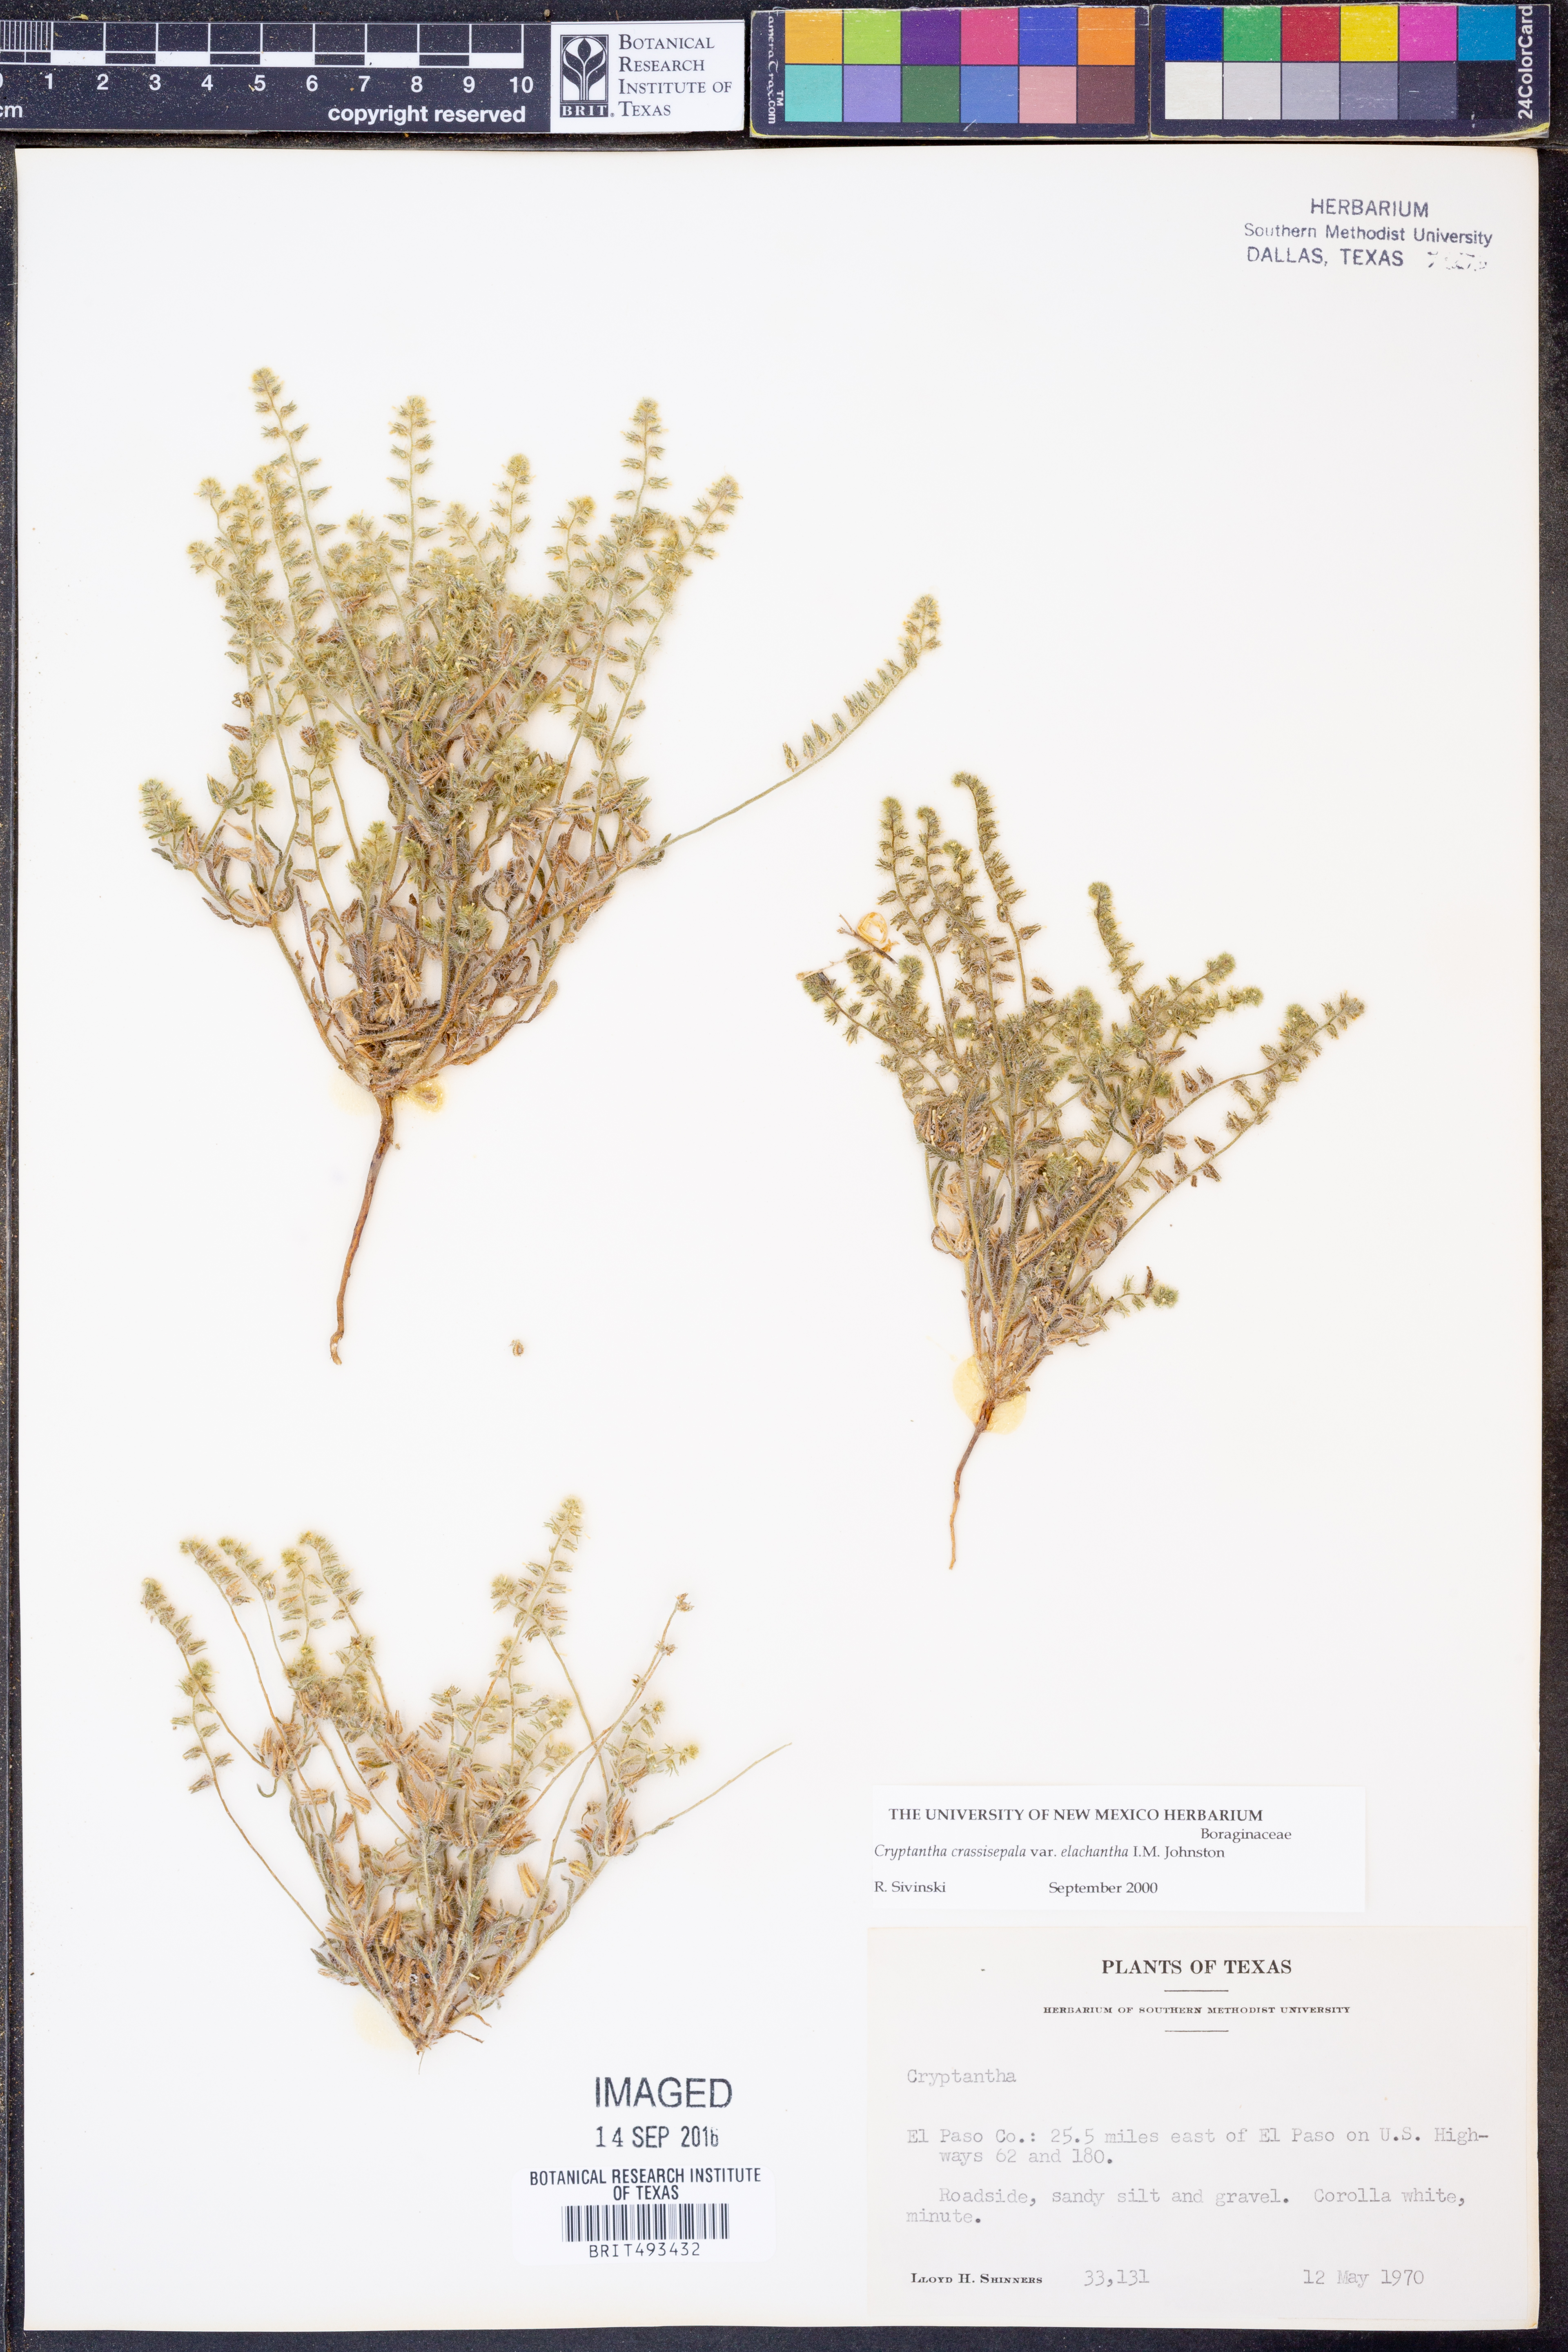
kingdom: Plantae
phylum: Tracheophyta
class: Magnoliopsida
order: Boraginales
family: Boraginaceae
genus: Cryptantha
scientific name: Cryptantha crassisepala
